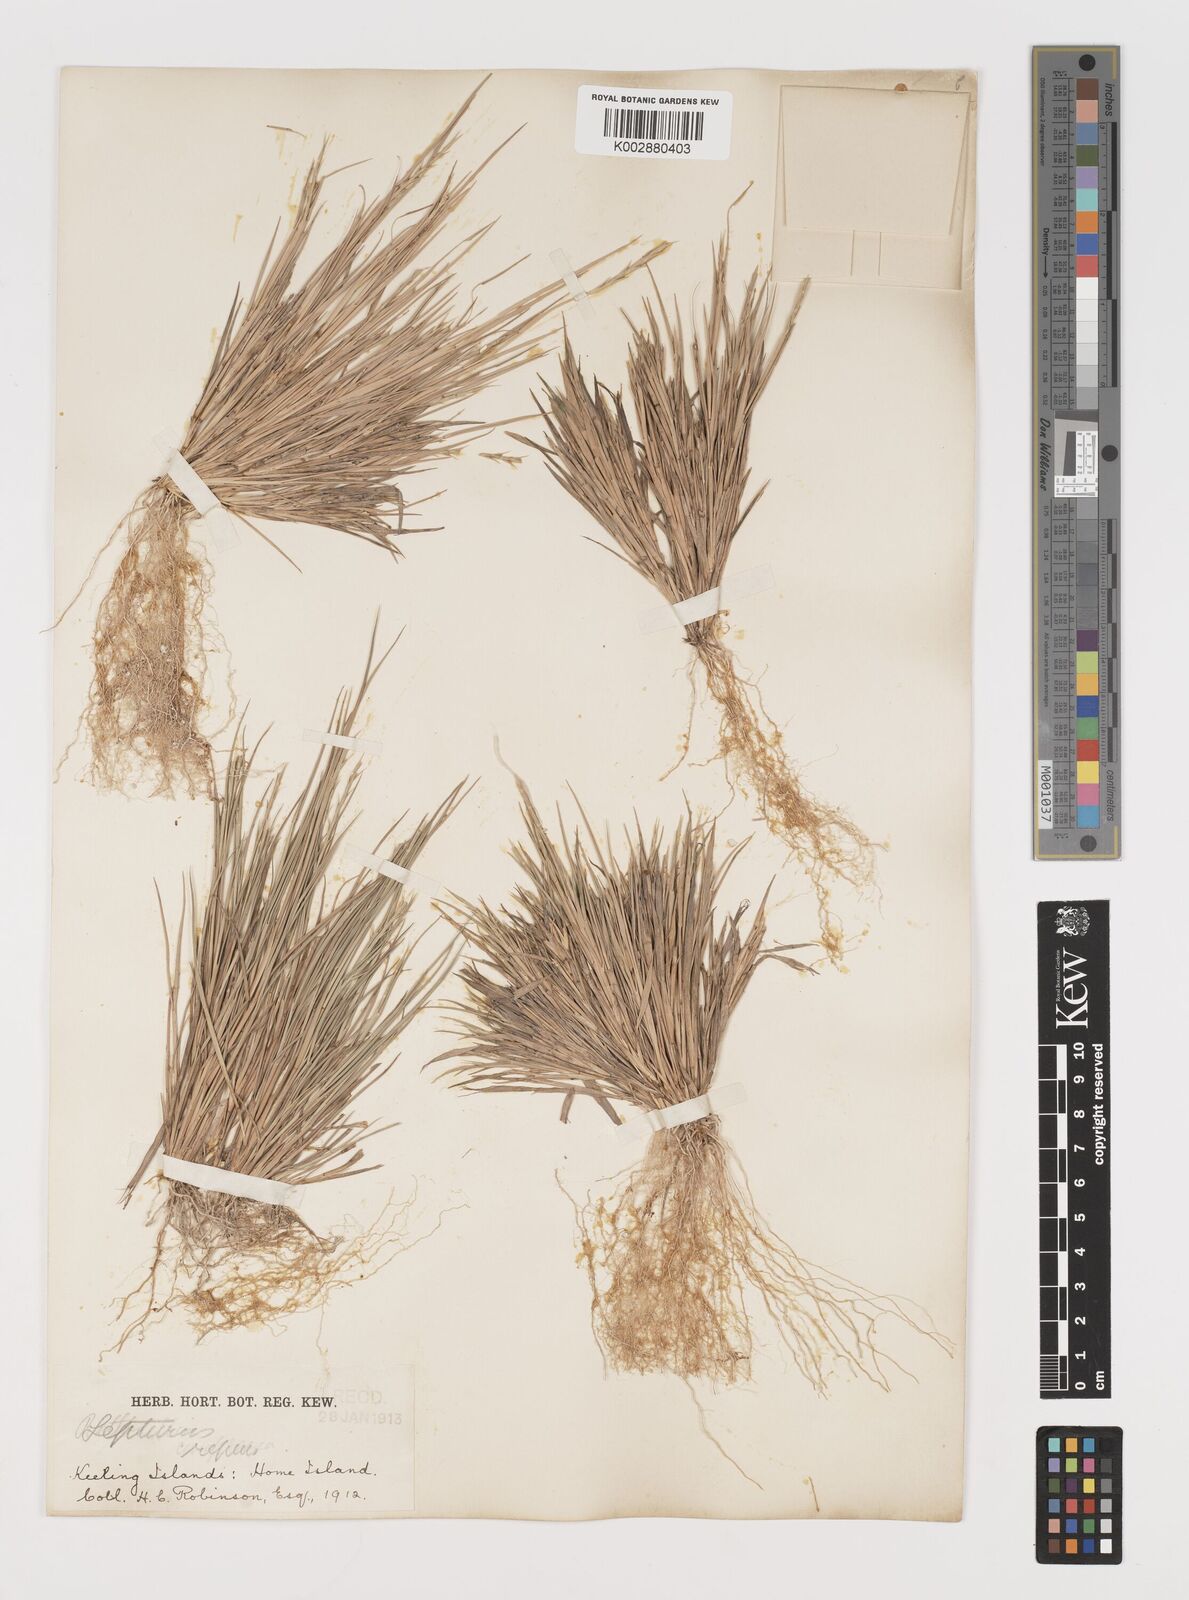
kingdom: Plantae
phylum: Tracheophyta
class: Liliopsida
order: Poales
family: Poaceae
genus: Lepturus
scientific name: Lepturus repens
